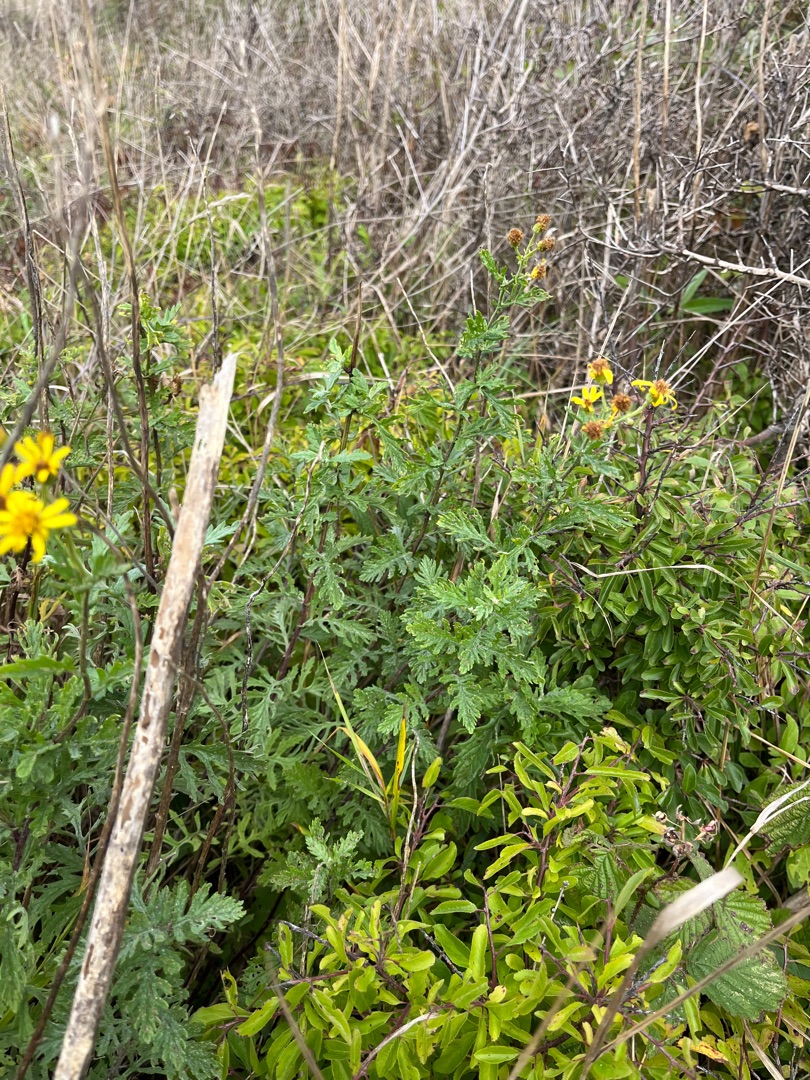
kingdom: Plantae
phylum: Tracheophyta
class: Magnoliopsida
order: Asterales
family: Asteraceae
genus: Jacobaea
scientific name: Jacobaea erucifolia
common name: Smalfliget brandbæger
